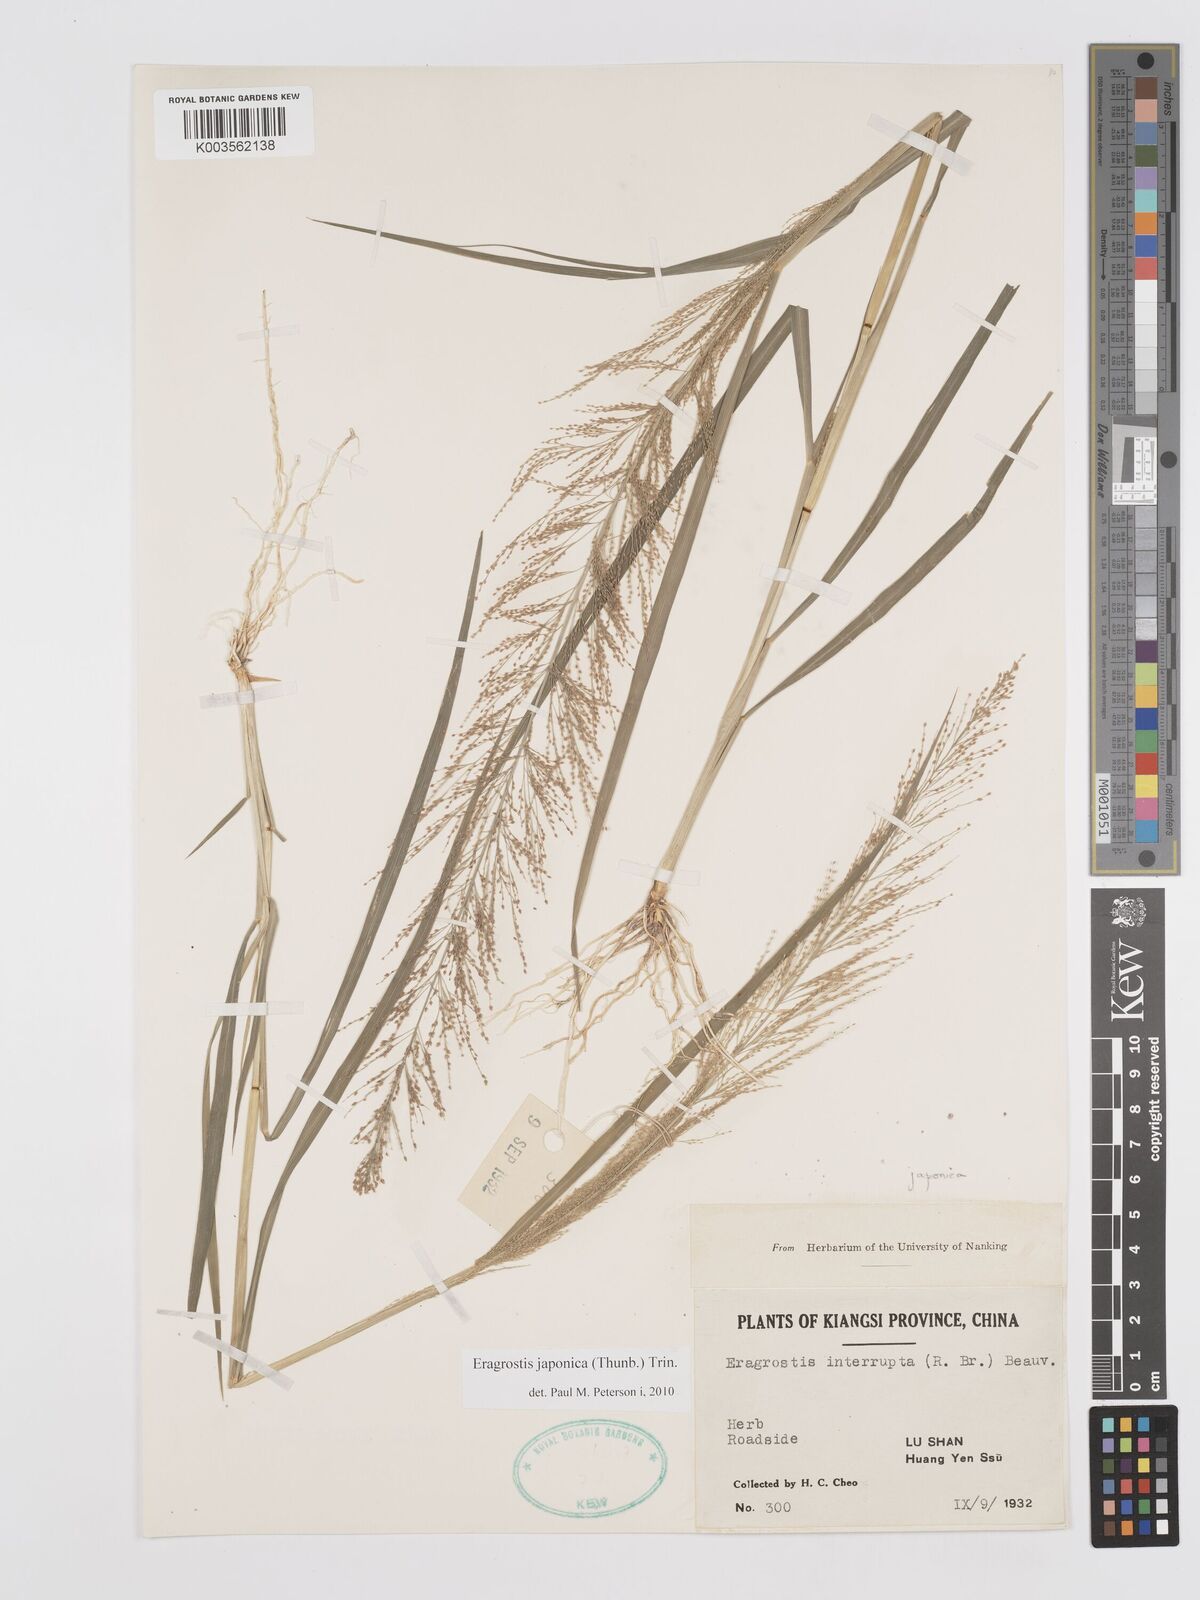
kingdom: Plantae
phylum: Tracheophyta
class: Liliopsida
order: Poales
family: Poaceae
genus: Eragrostis
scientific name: Eragrostis japonica
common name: Pond lovegrass
